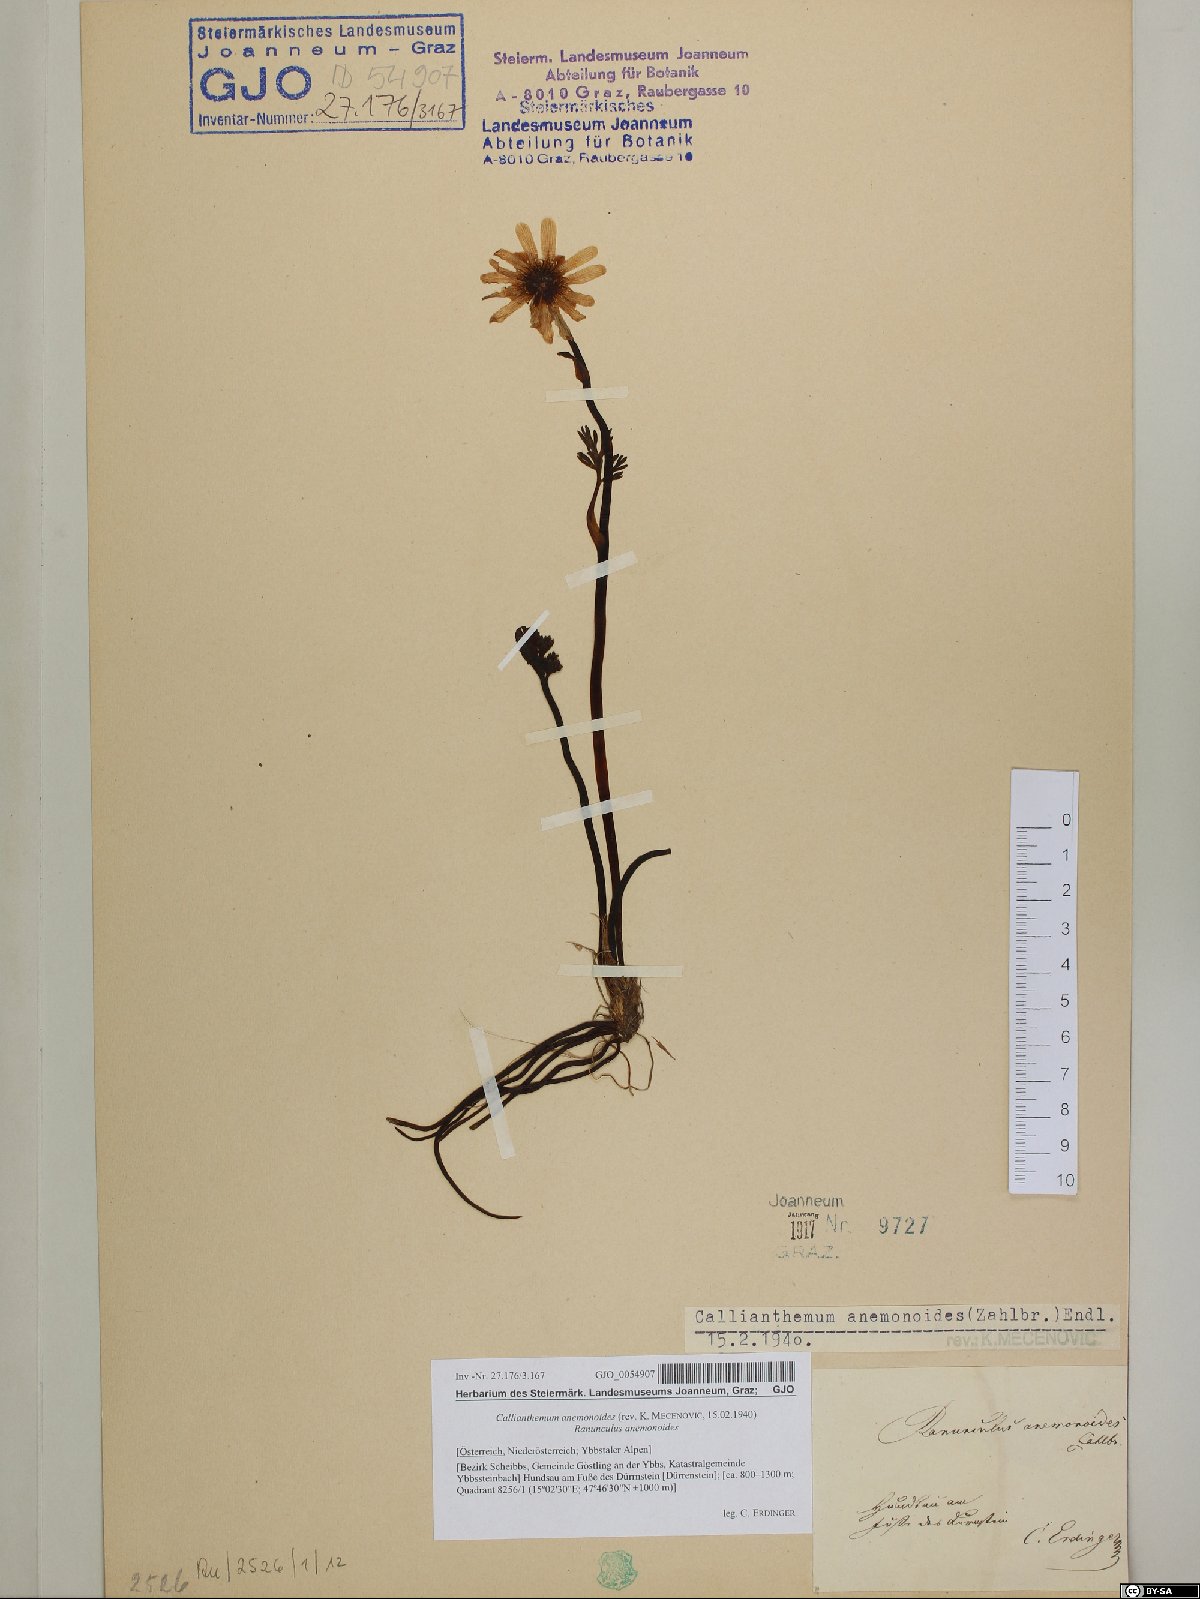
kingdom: Plantae
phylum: Tracheophyta
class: Magnoliopsida
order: Ranunculales
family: Ranunculaceae
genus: Callianthemum
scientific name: Callianthemum anemonoides
